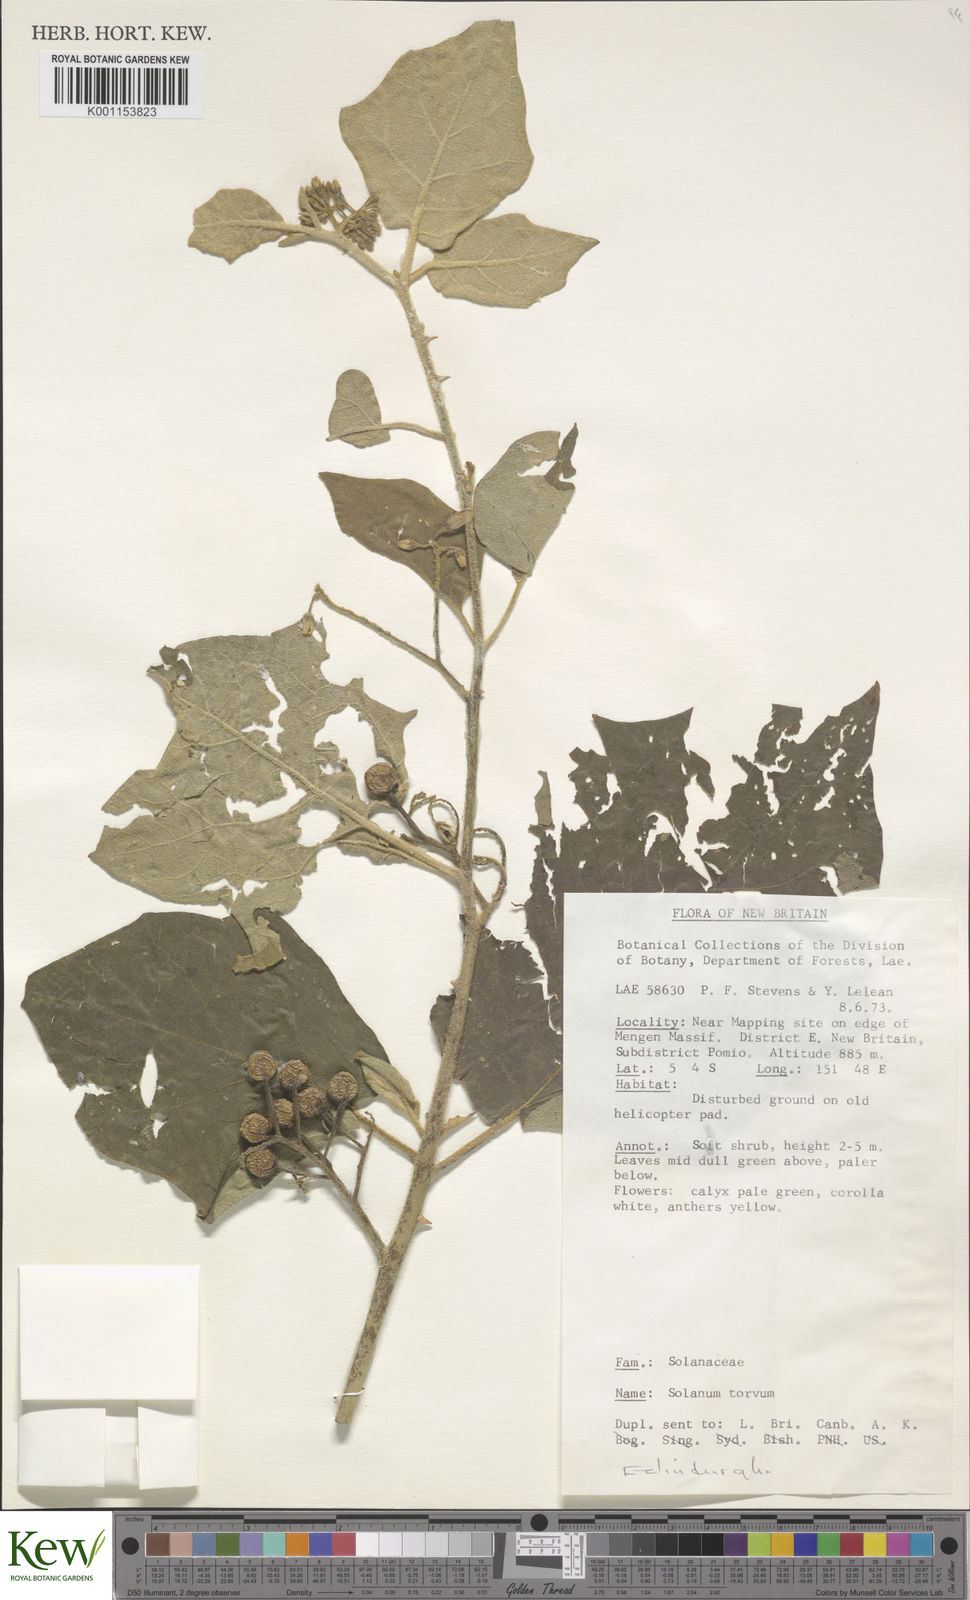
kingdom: Plantae
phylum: Tracheophyta
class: Magnoliopsida
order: Solanales
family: Solanaceae
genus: Solanum
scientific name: Solanum torvum
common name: Turkey berry
